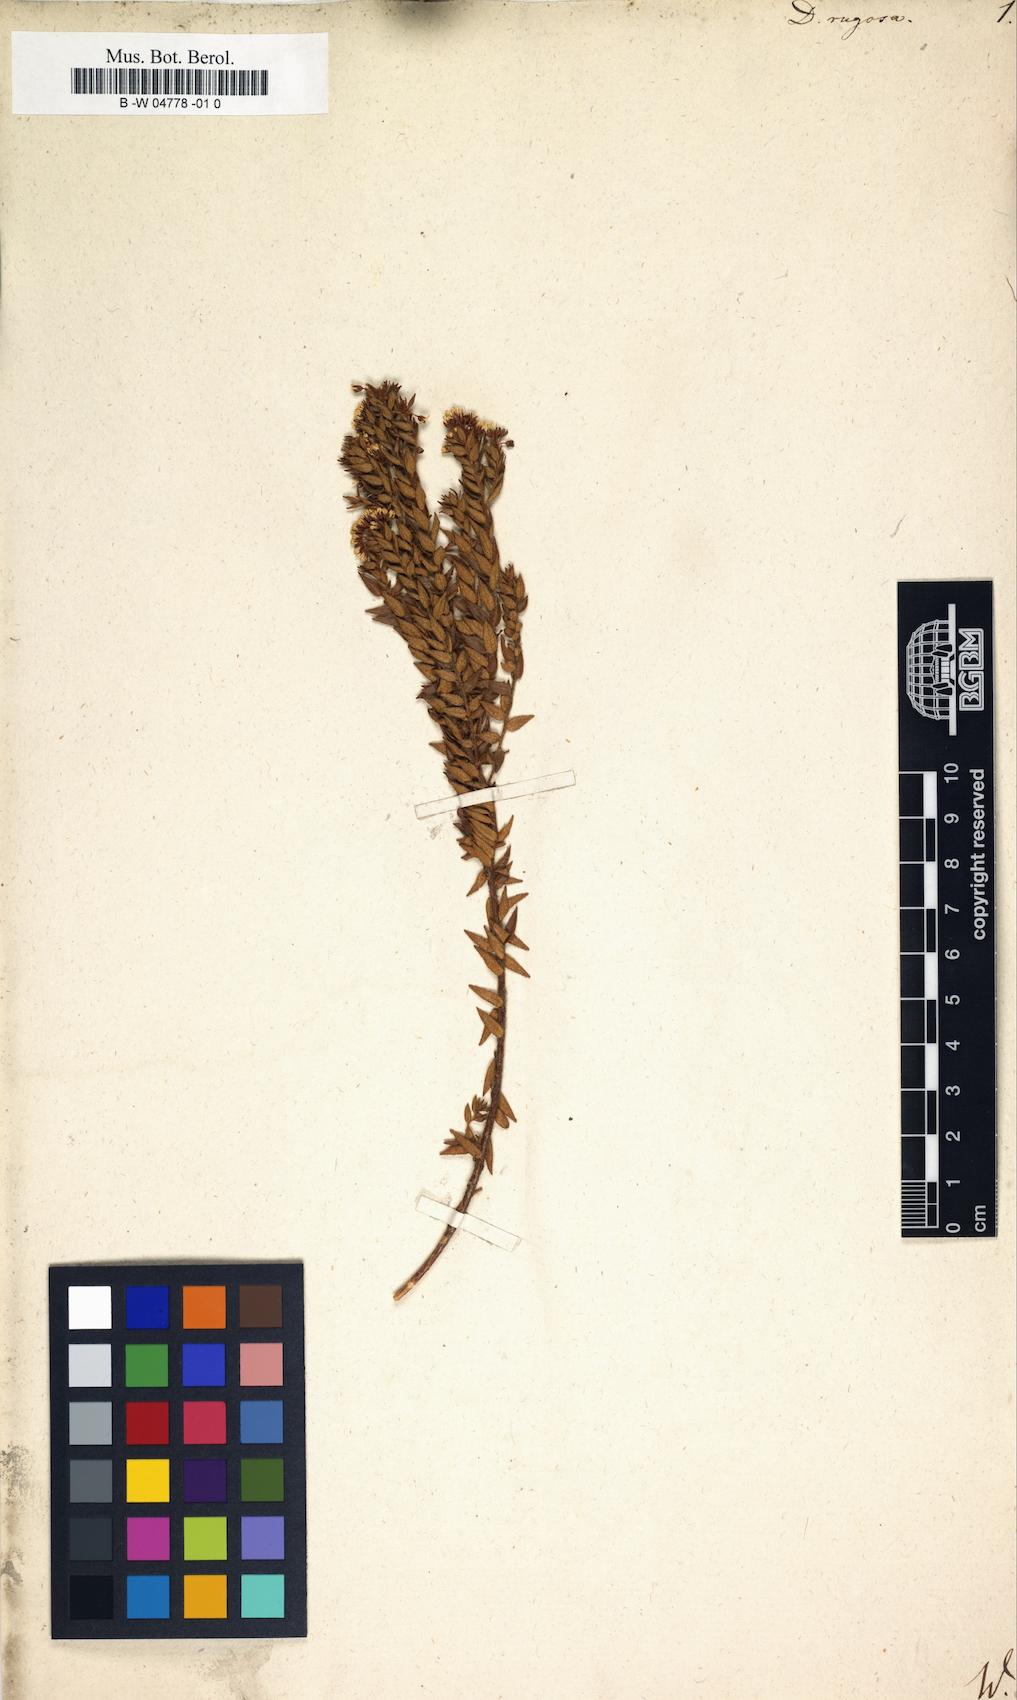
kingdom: Plantae
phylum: Tracheophyta
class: Magnoliopsida
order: Sapindales
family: Rutaceae
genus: Agathosma
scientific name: Agathosma
